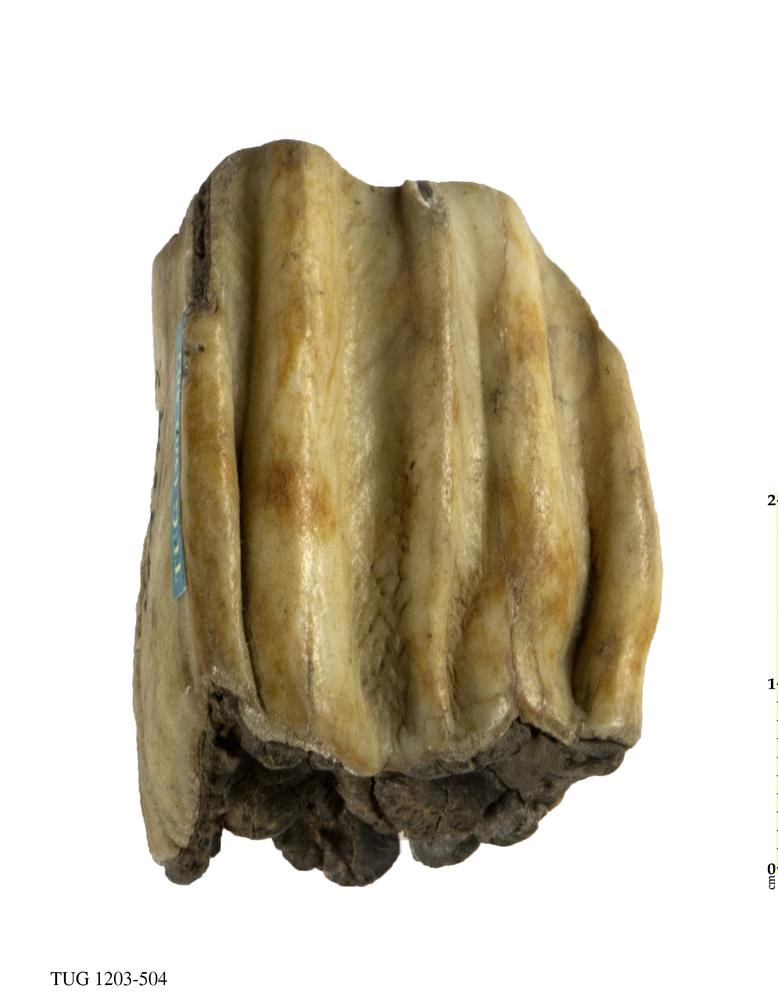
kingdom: Animalia
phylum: Chordata
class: Mammalia
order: Artiodactyla
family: Bovidae
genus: Bos
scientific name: Bos
